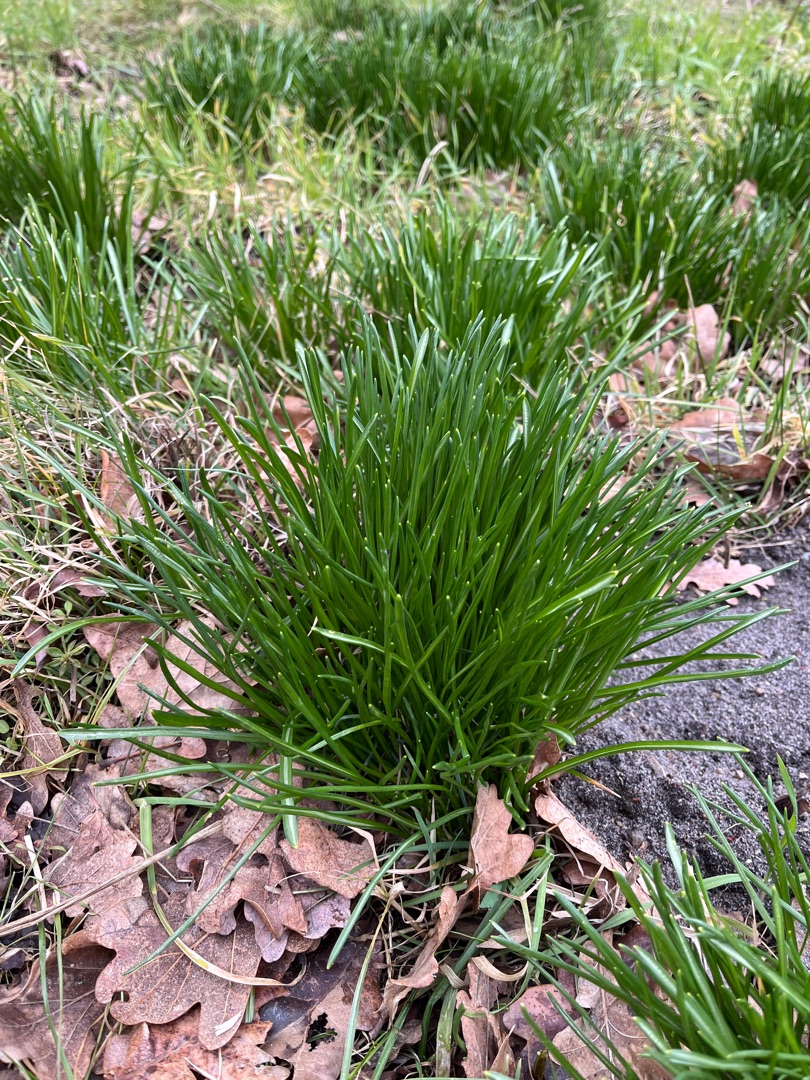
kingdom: Plantae
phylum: Tracheophyta
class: Liliopsida
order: Asparagales
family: Asparagaceae
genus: Ornithogalum
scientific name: Ornithogalum umbellatum
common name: Kost-fuglemælk
